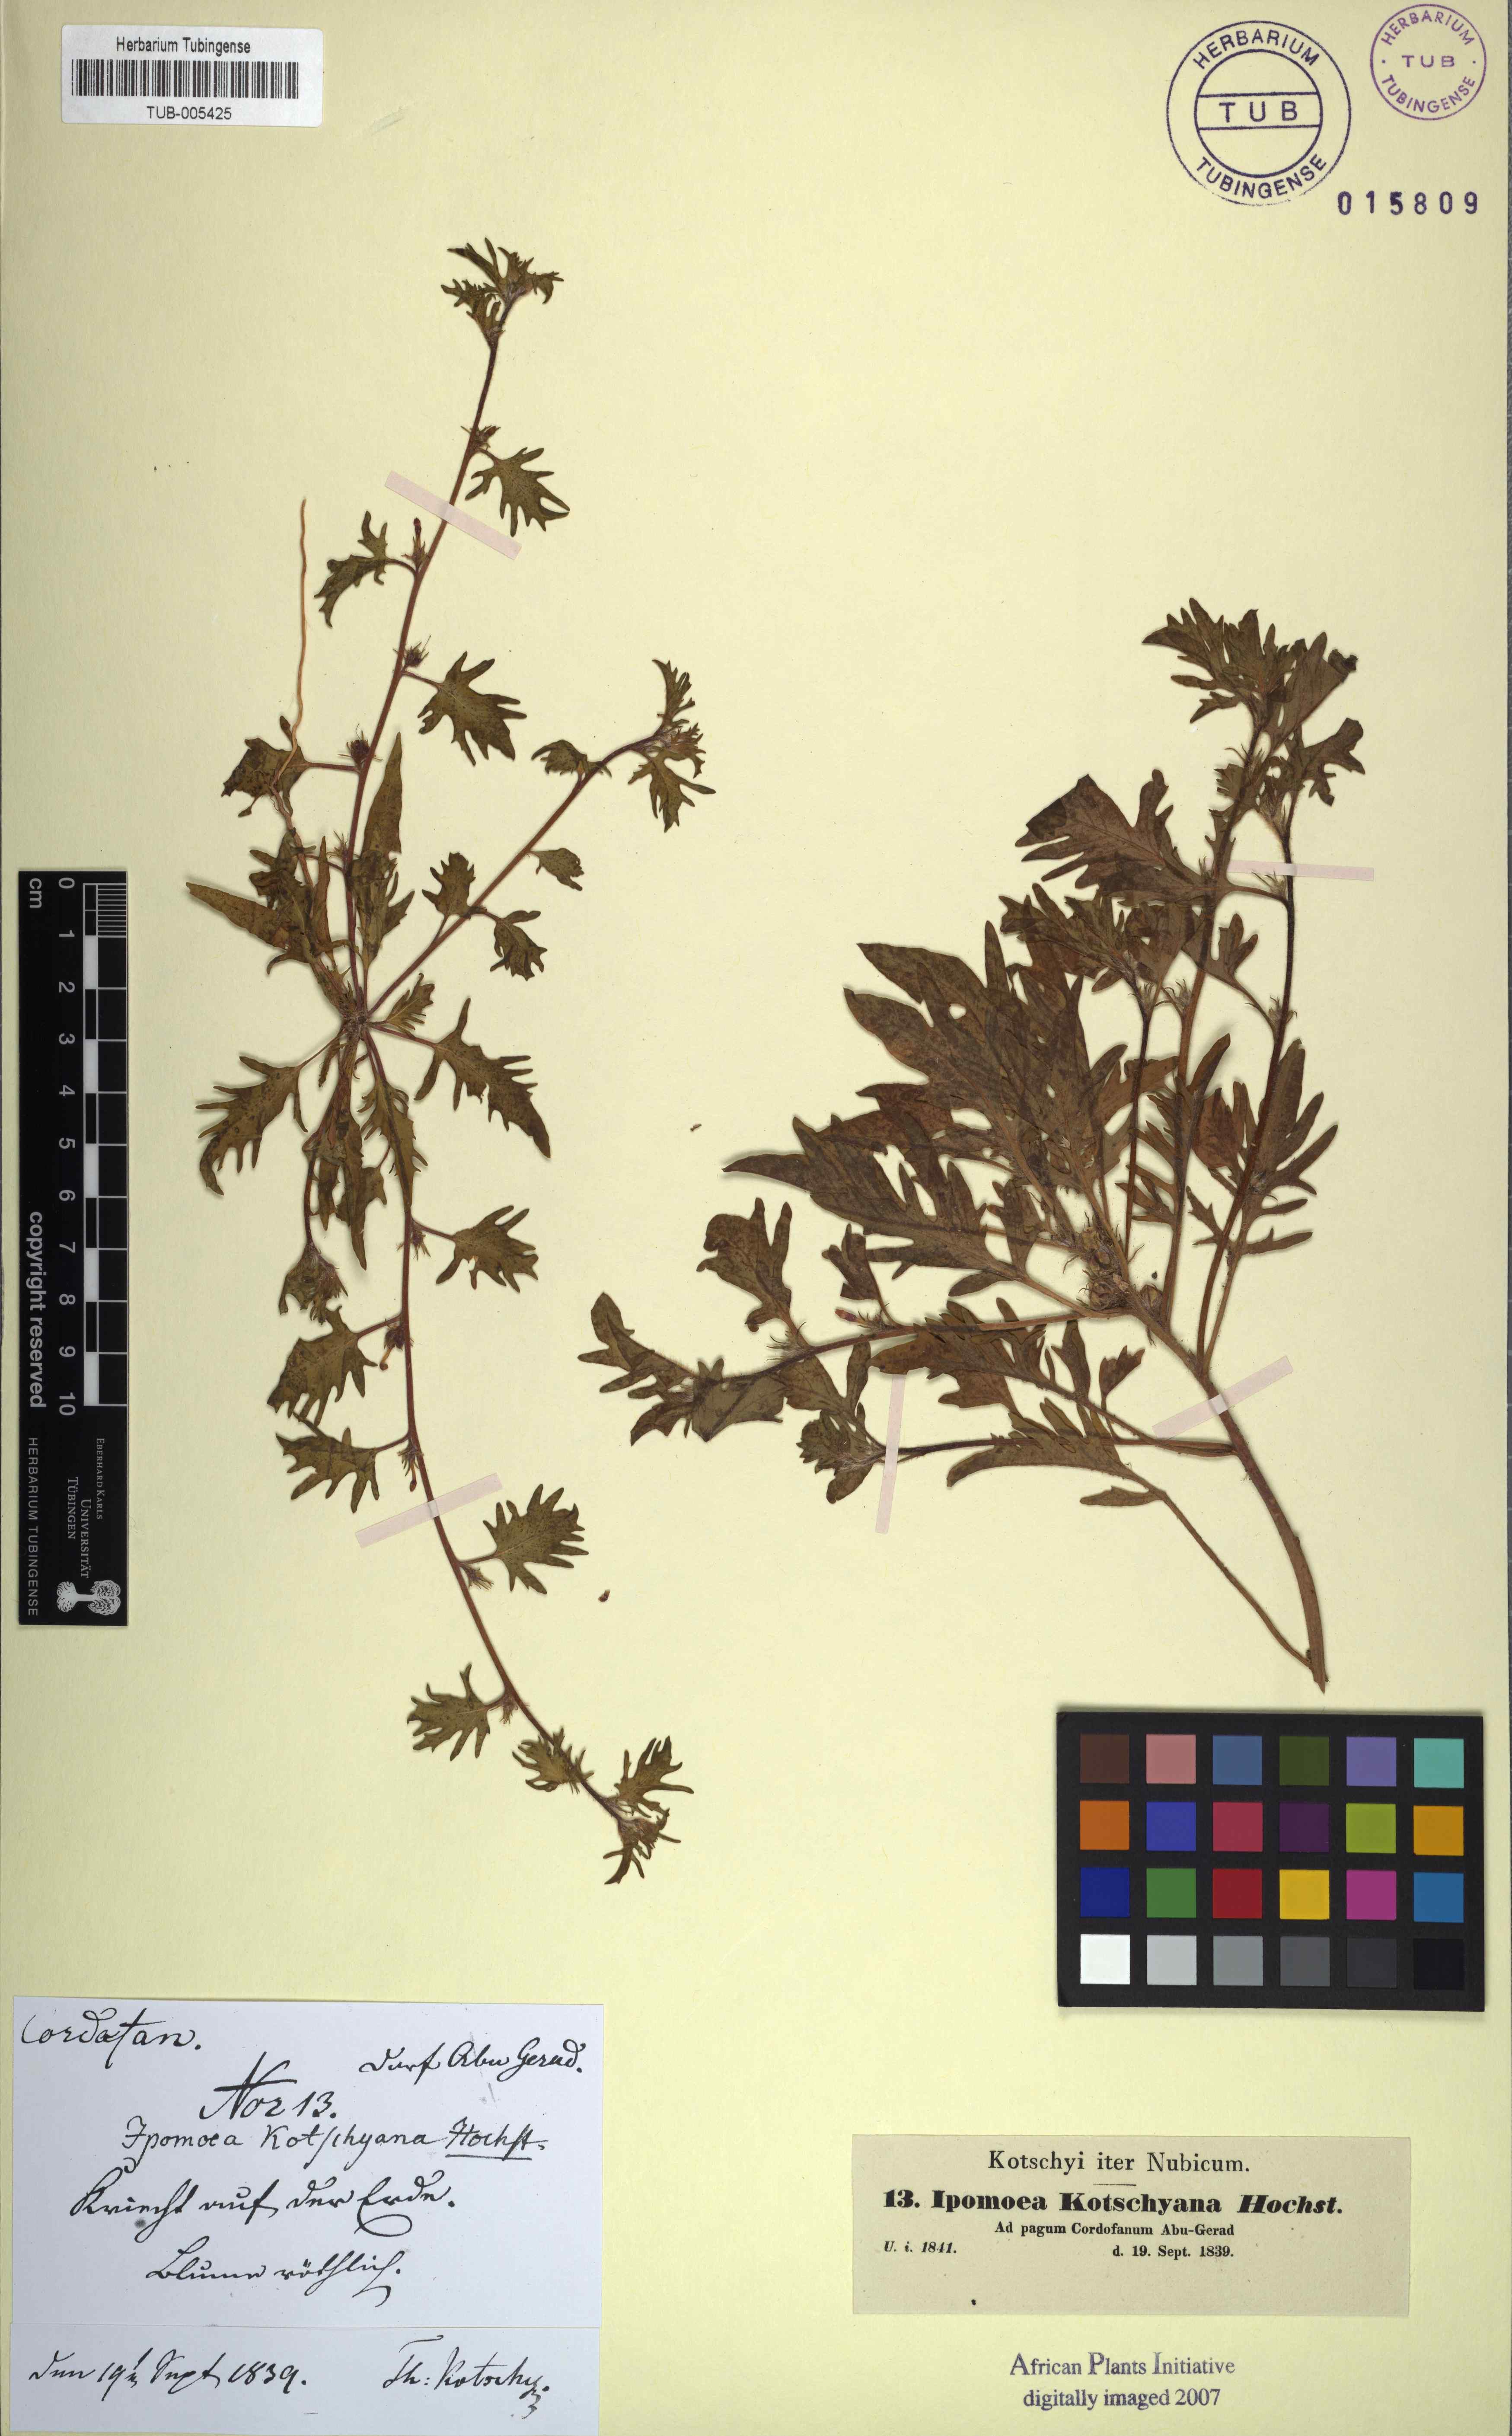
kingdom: Plantae
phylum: Tracheophyta
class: Magnoliopsida
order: Solanales
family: Convolvulaceae
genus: Ipomoea
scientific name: Ipomoea kotschyana
